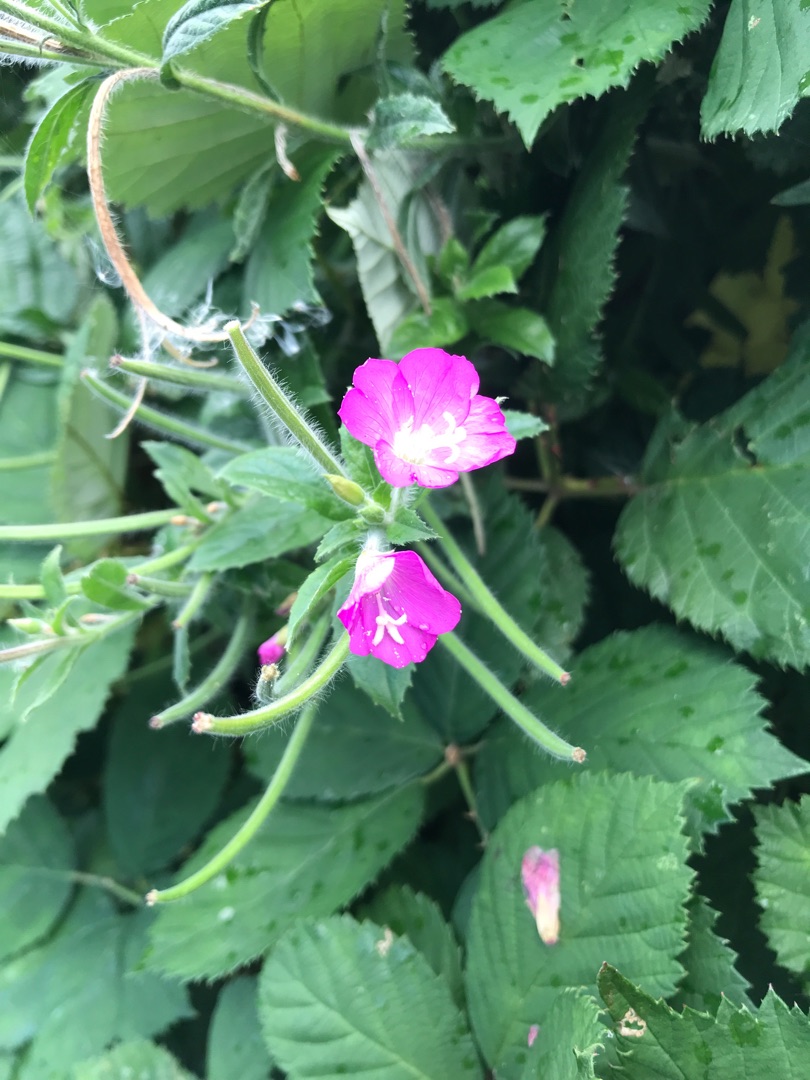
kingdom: Plantae
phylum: Tracheophyta
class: Magnoliopsida
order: Myrtales
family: Onagraceae
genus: Epilobium
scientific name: Epilobium hirsutum
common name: Lådden dueurt
